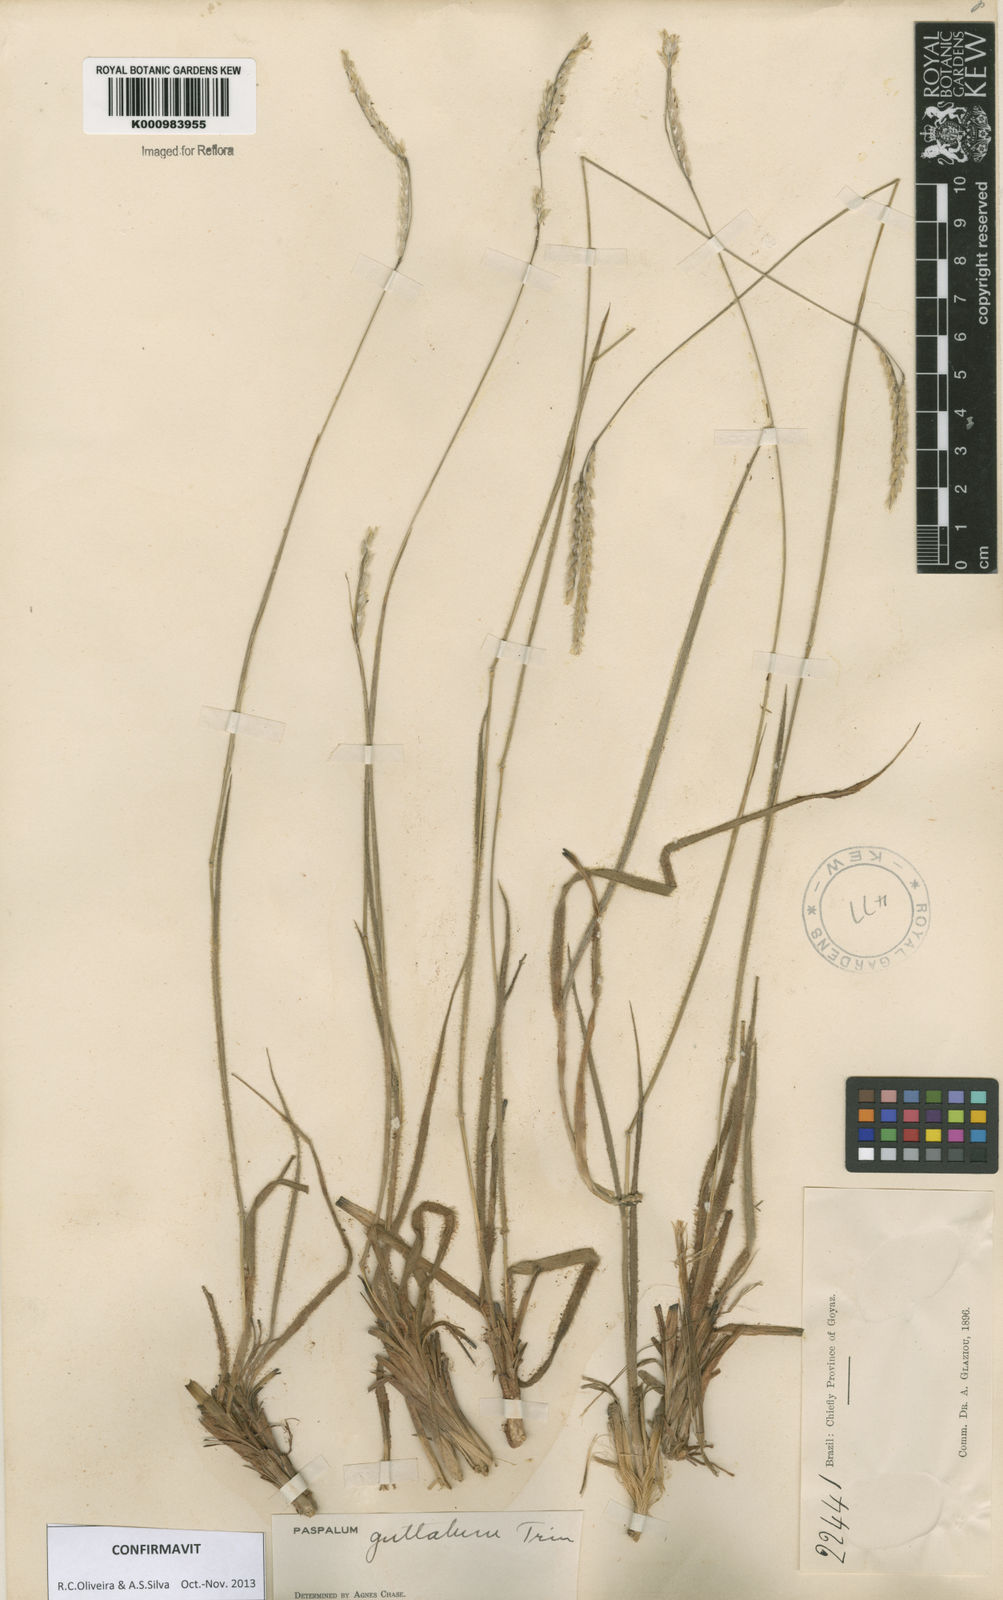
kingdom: Plantae
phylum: Tracheophyta
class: Liliopsida
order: Poales
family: Poaceae
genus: Paspalum
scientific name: Paspalum guttatum
